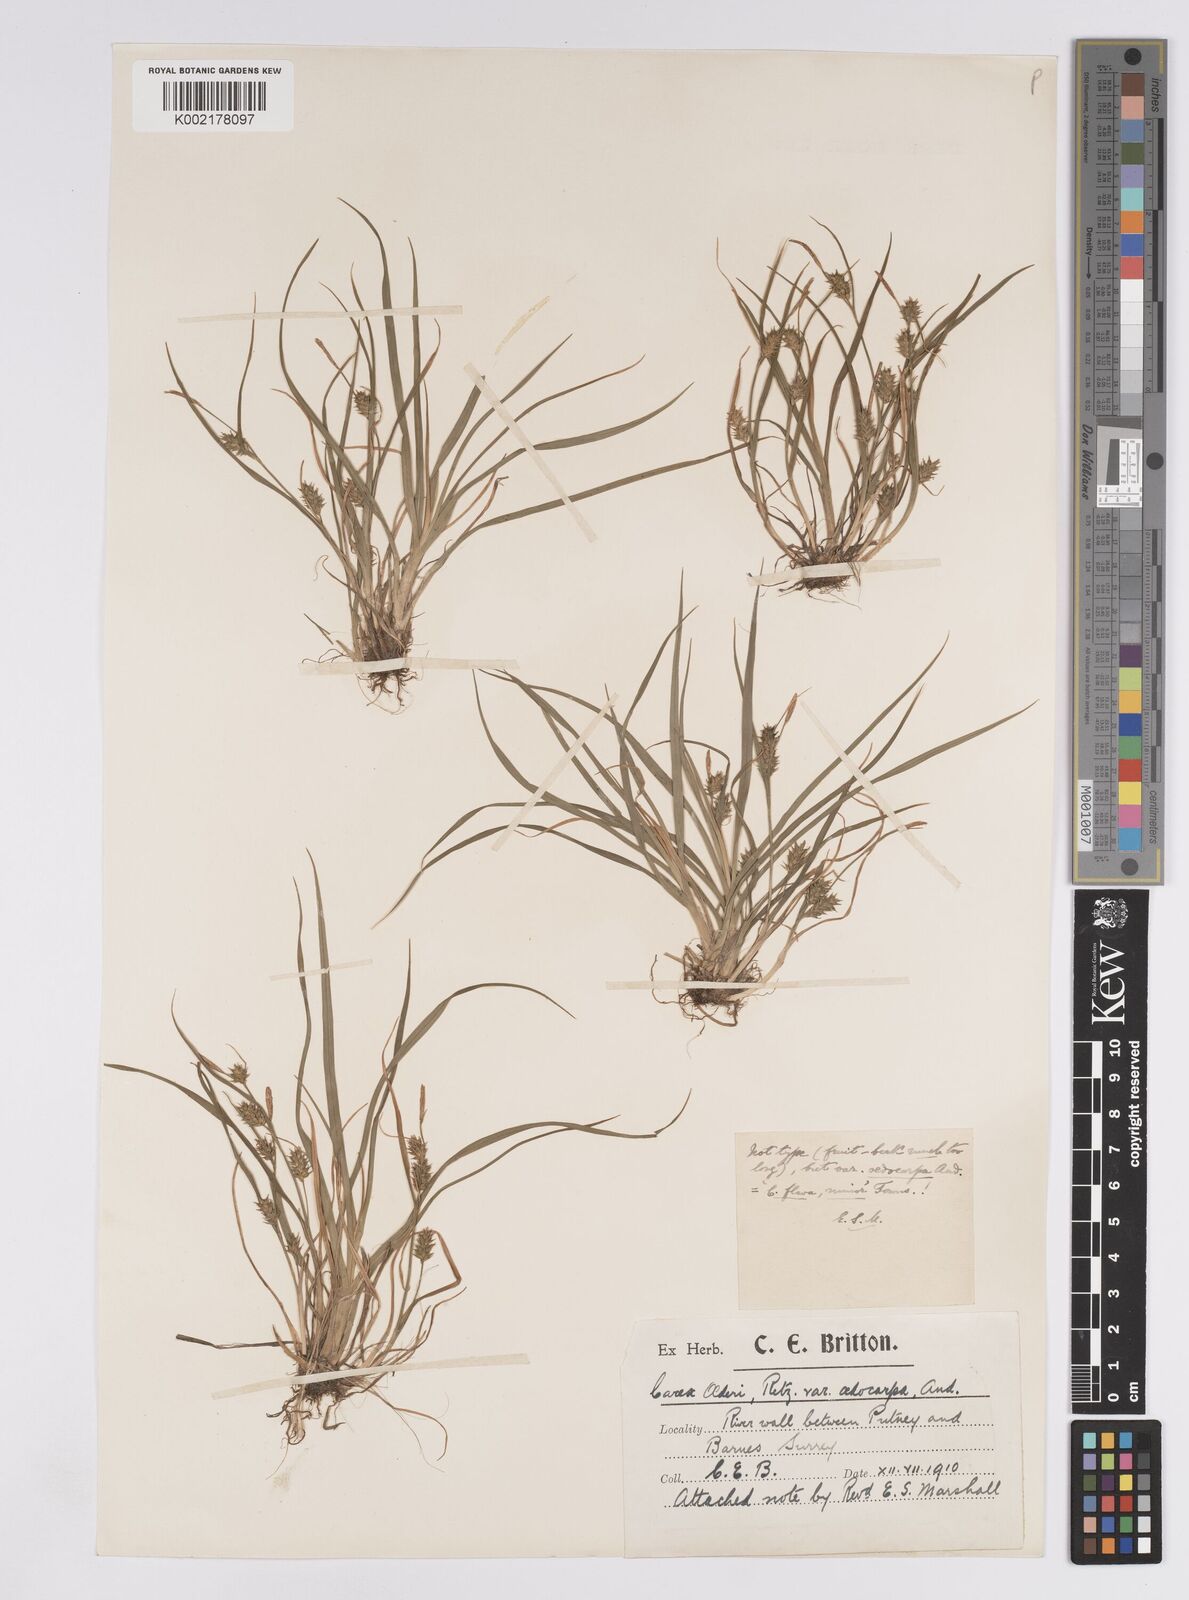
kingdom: Plantae
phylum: Tracheophyta
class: Liliopsida
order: Poales
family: Cyperaceae
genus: Carex
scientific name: Carex demissa
